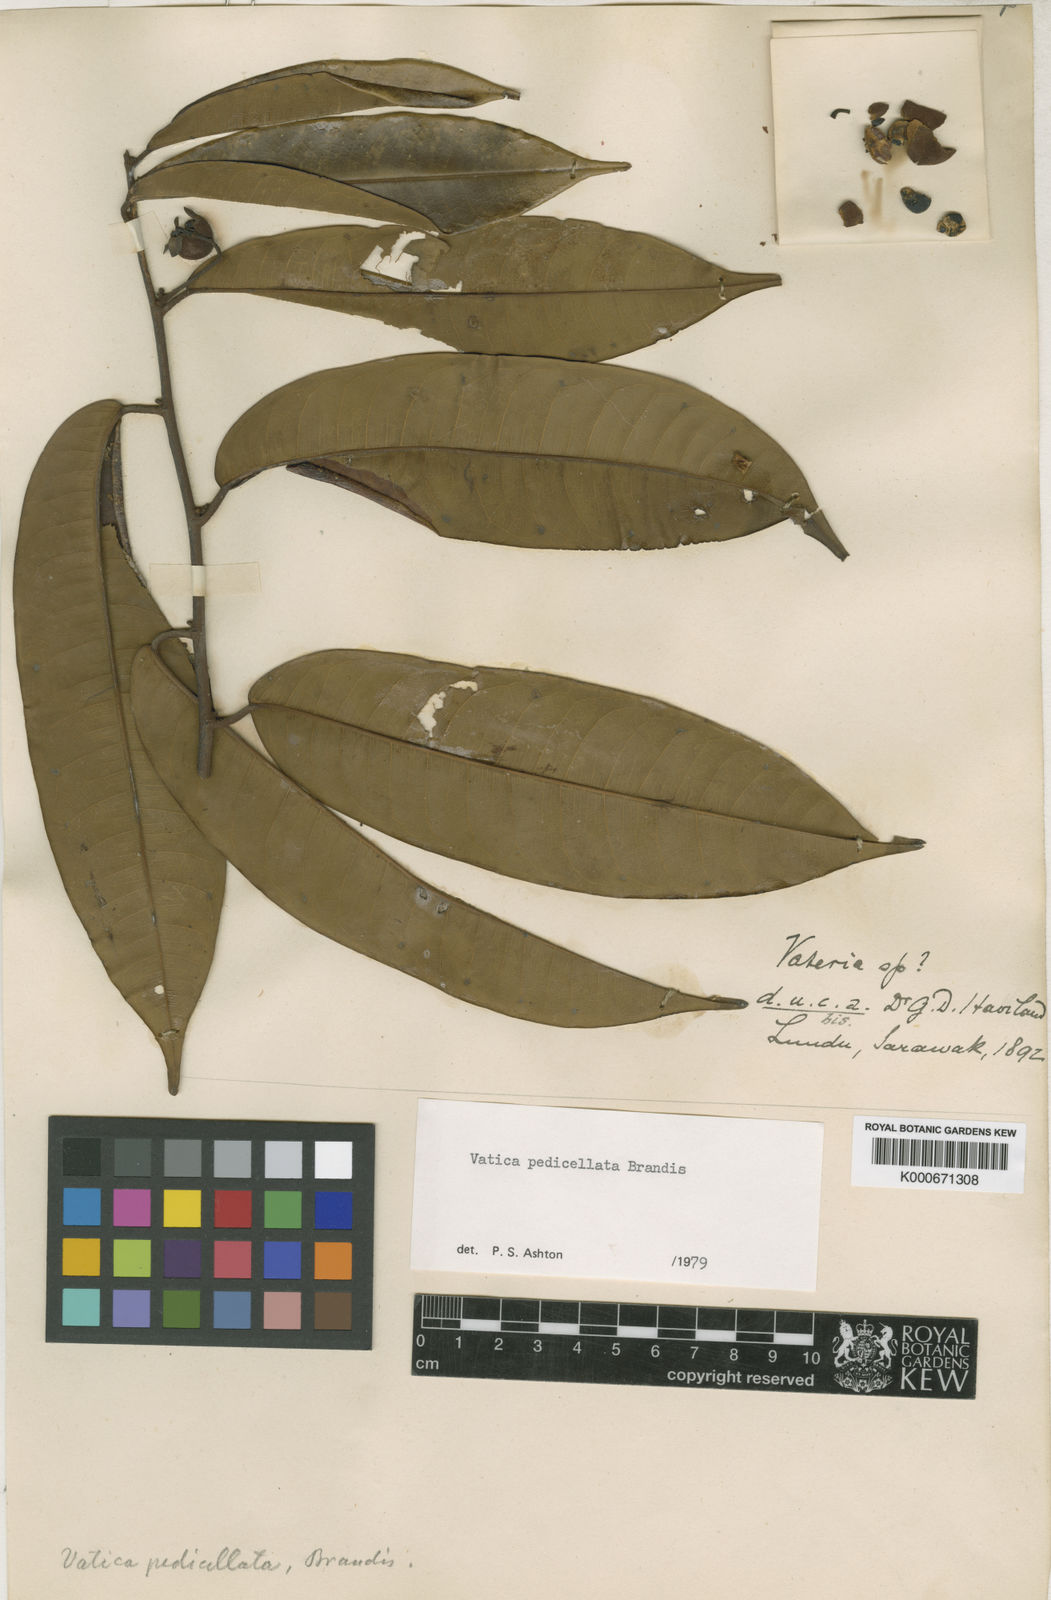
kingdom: Plantae
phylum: Tracheophyta
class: Magnoliopsida
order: Malvales
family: Dipterocarpaceae
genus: Vatica
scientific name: Vatica pedicellata
